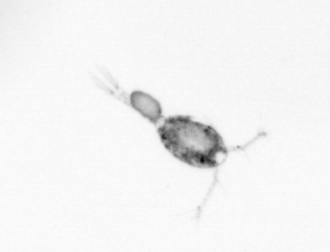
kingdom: Animalia
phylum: Arthropoda
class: Copepoda
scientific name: Copepoda
